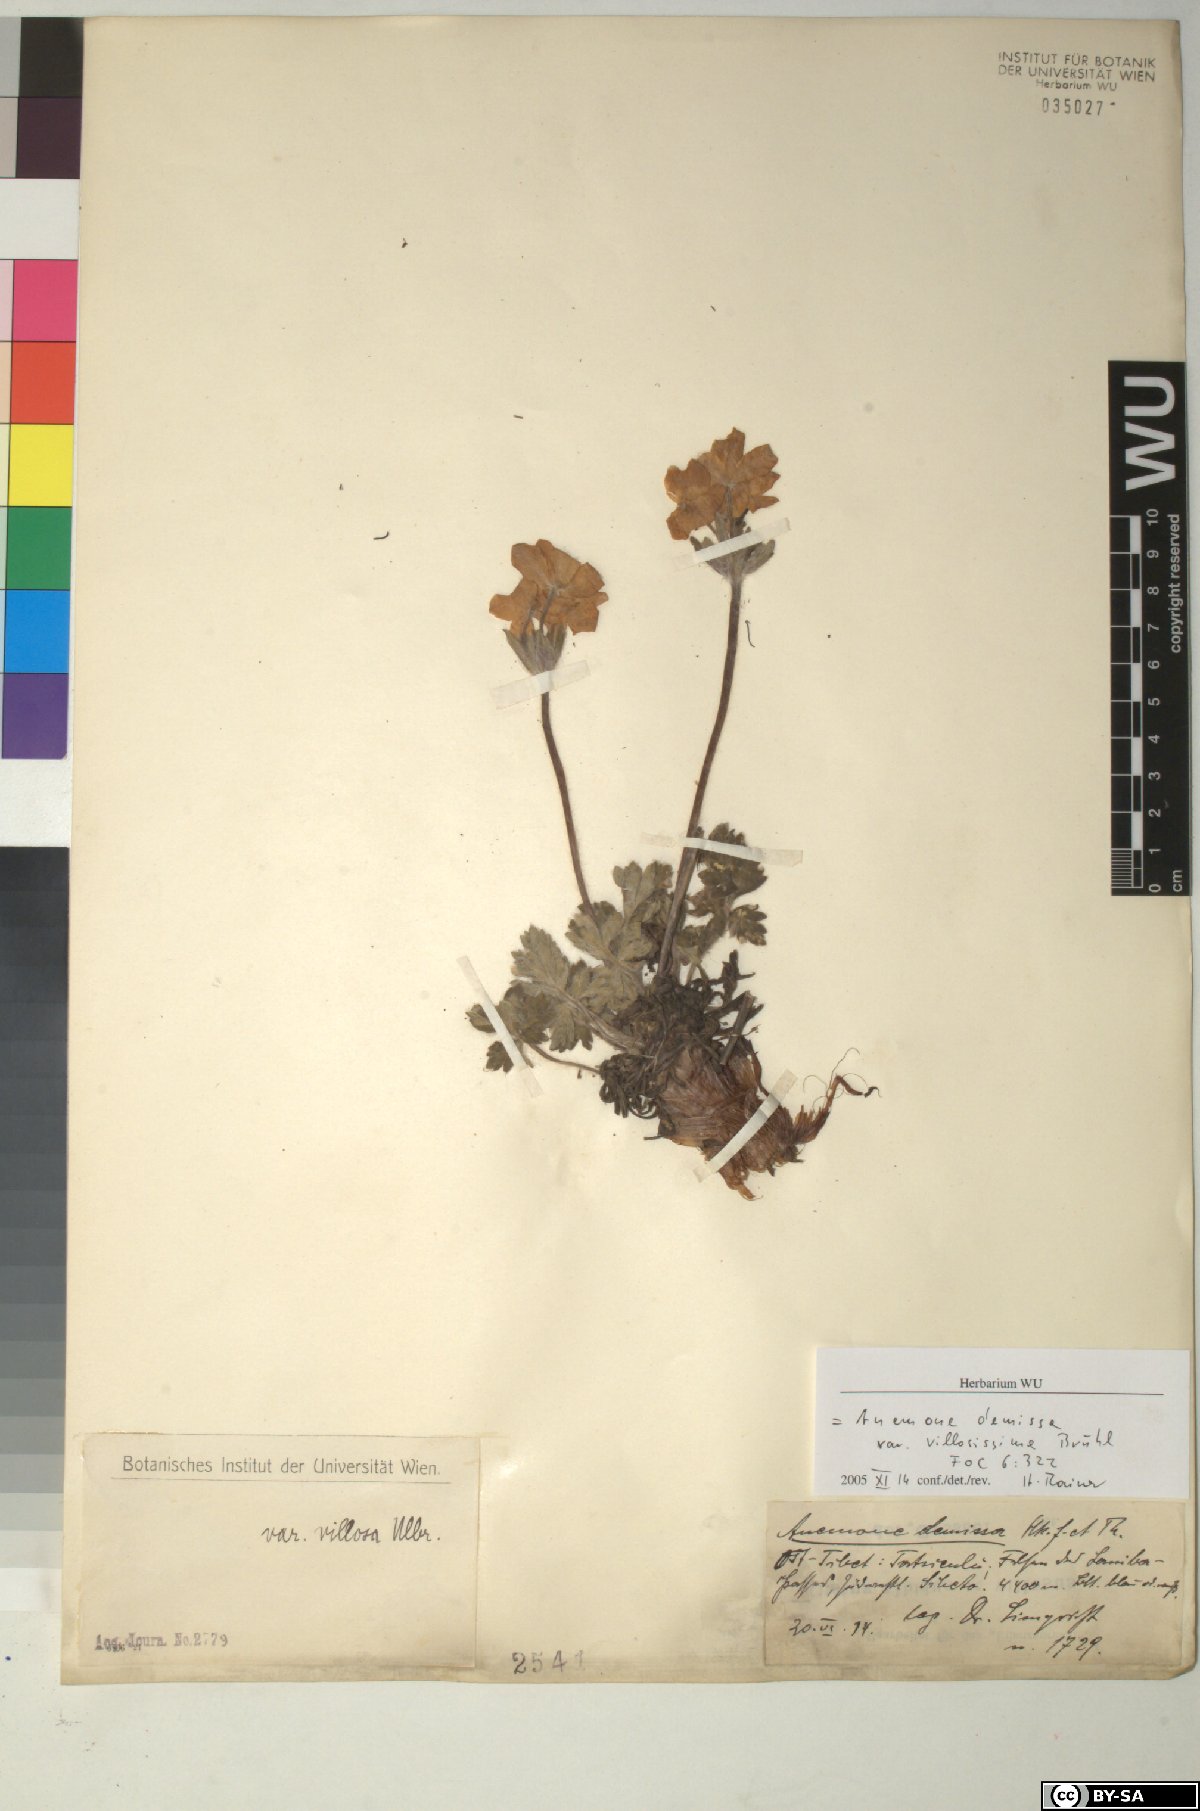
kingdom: Plantae
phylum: Tracheophyta
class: Magnoliopsida
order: Ranunculales
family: Ranunculaceae
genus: Anemonastrum
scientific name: Anemonastrum demissum
